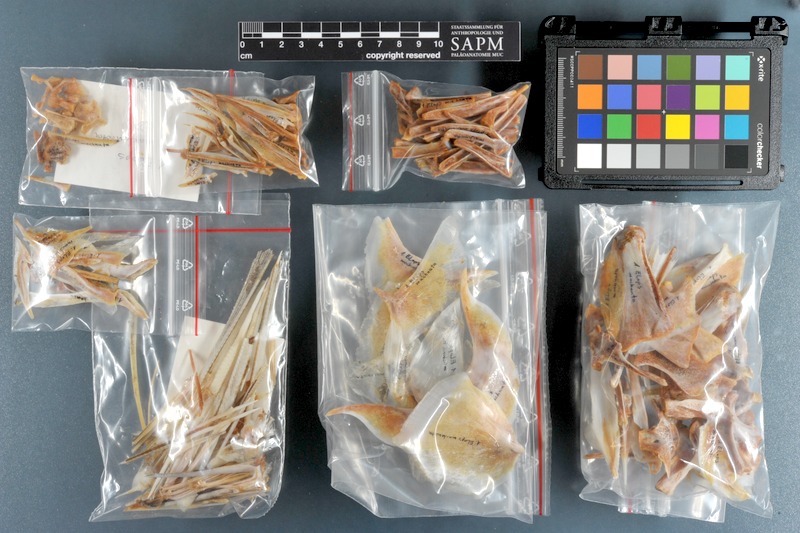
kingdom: Animalia
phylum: Chordata
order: Elopiformes
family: Elopidae
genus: Elops
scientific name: Elops machnata
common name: Ladyfish
